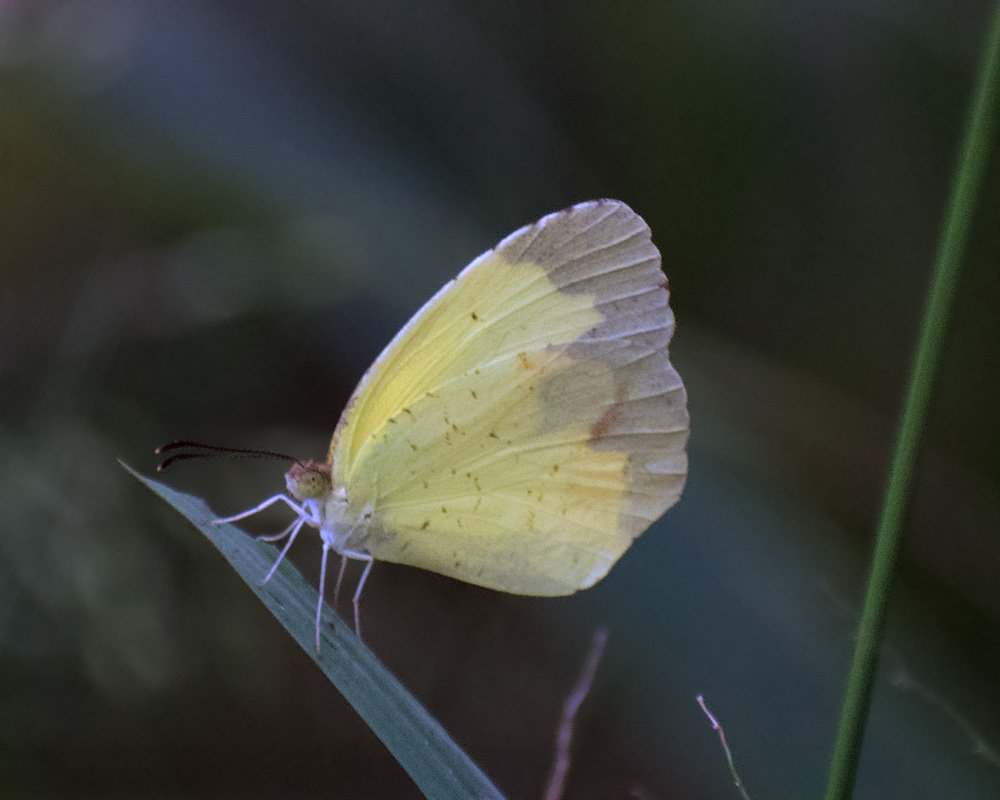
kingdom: Animalia
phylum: Arthropoda
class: Insecta
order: Lepidoptera
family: Pieridae
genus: Eurema
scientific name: Eurema boisduvaliana
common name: Boisduval's Yellow
